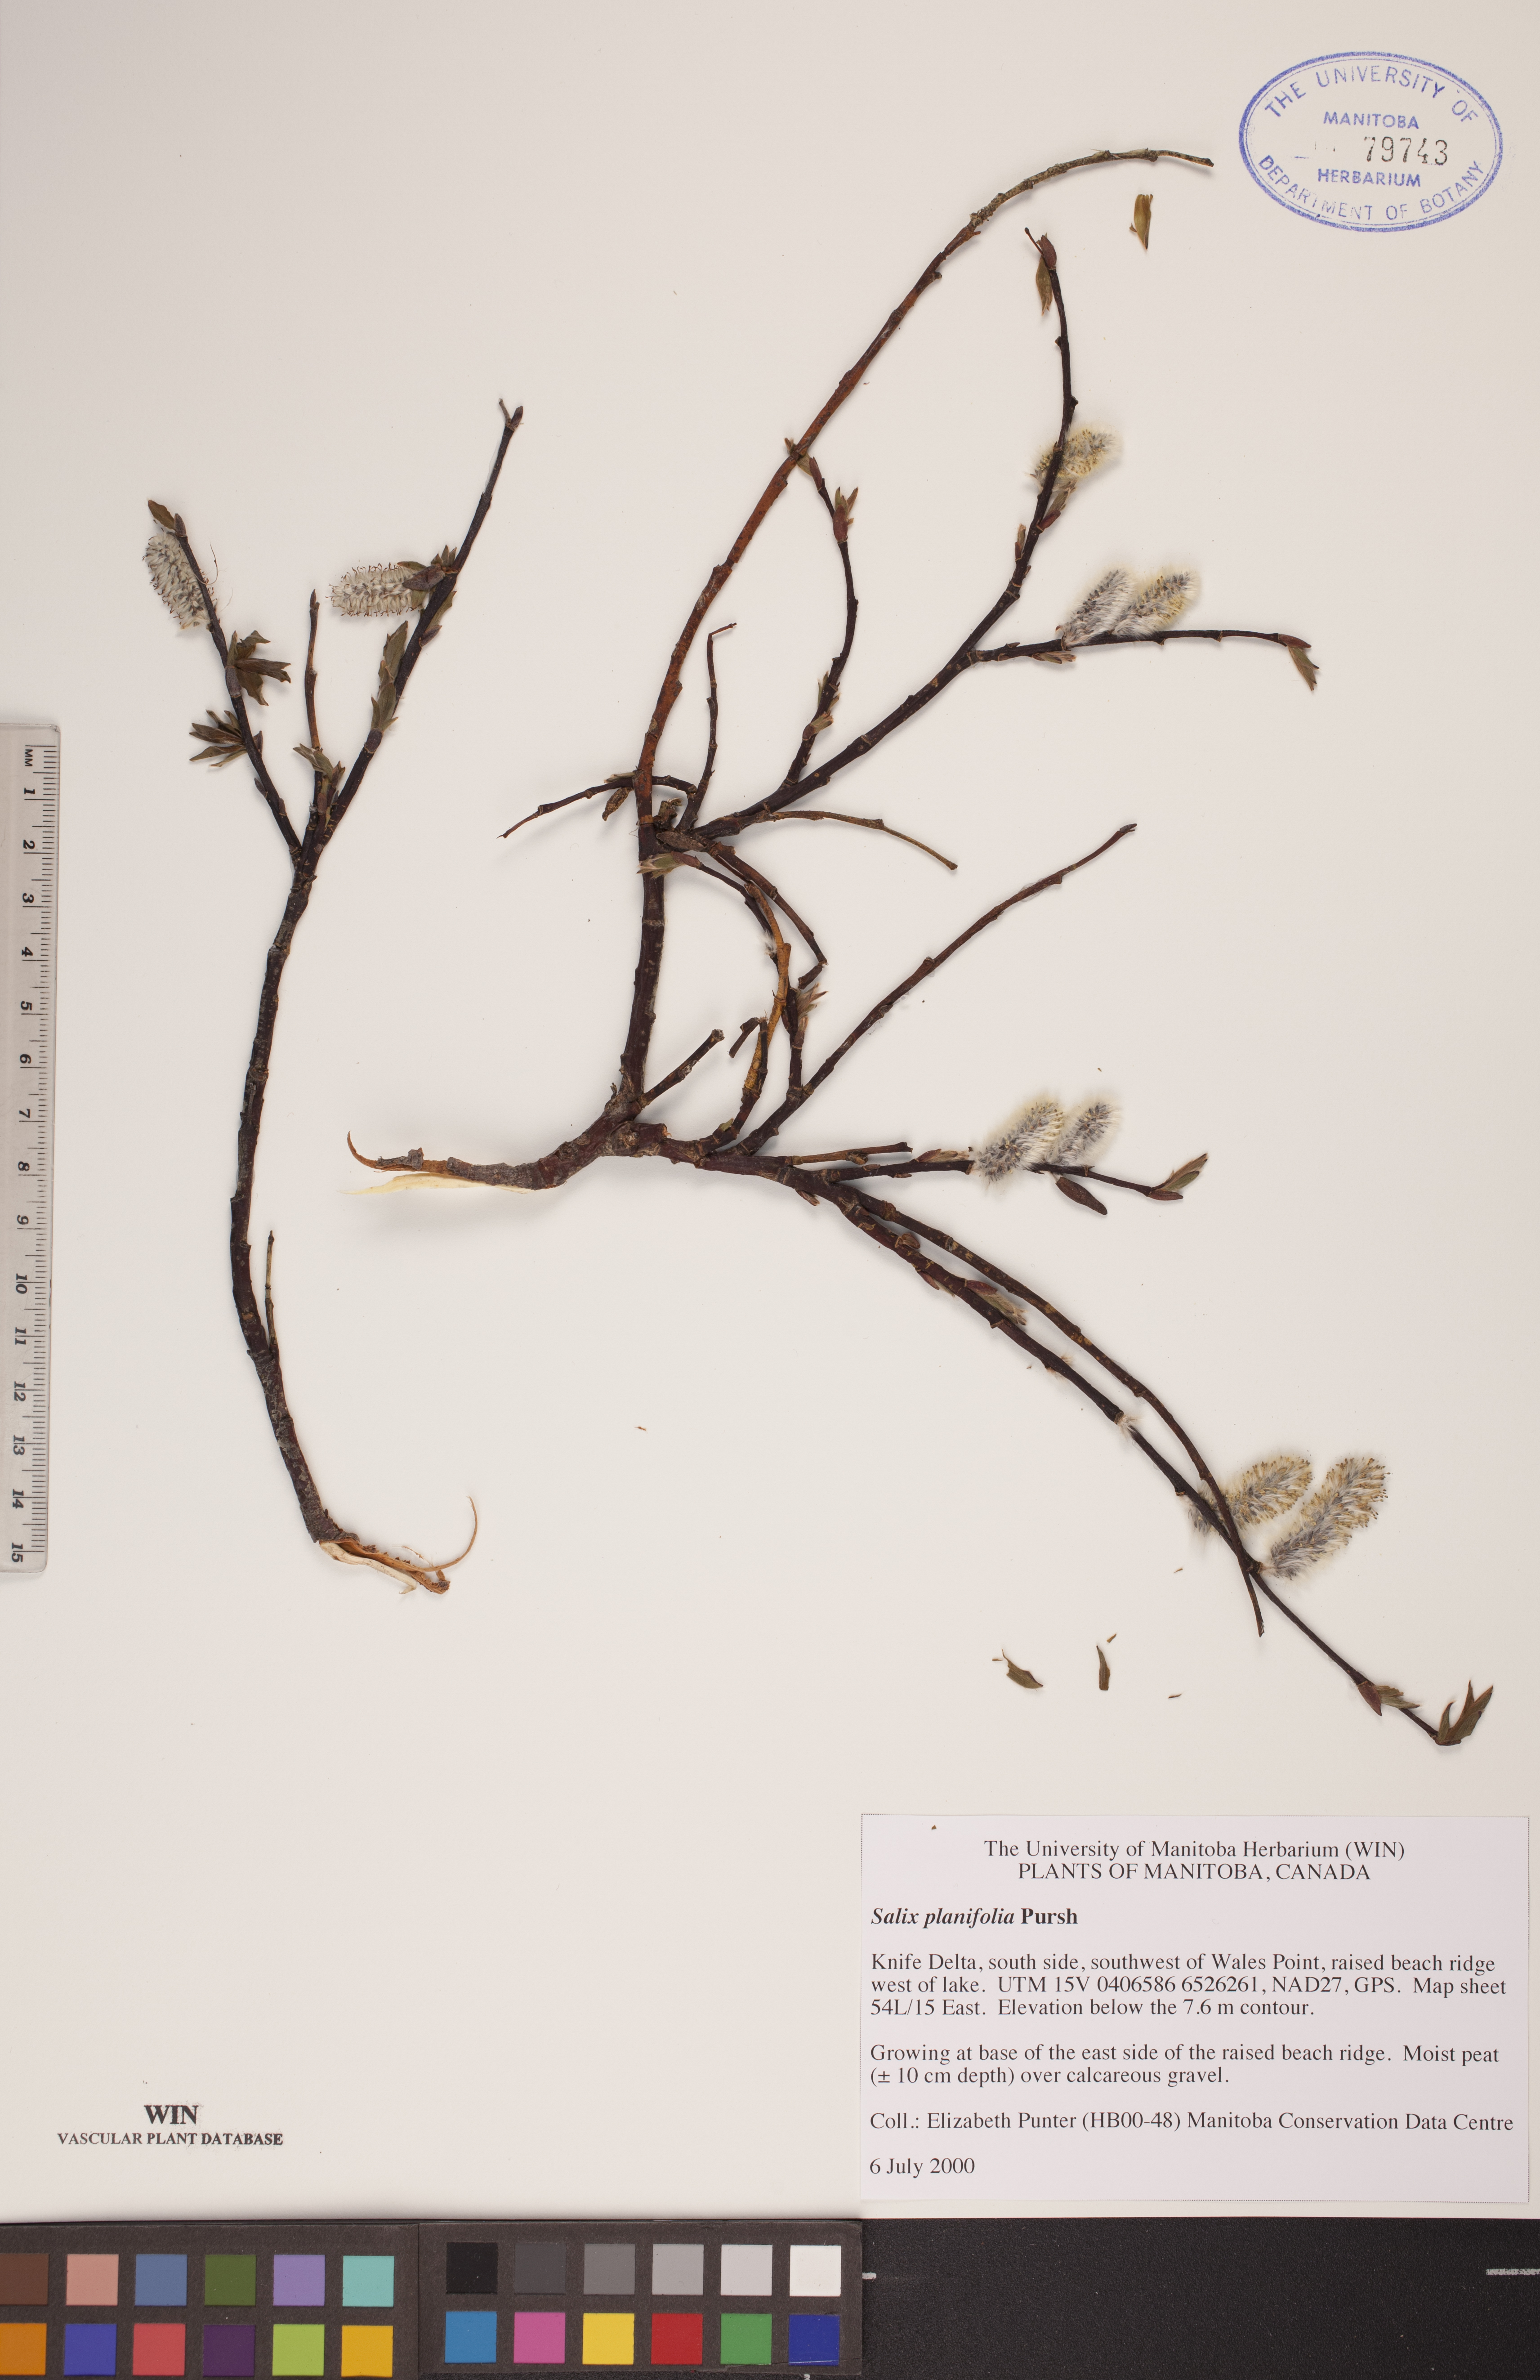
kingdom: Plantae
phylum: Tracheophyta
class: Magnoliopsida
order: Malpighiales
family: Salicaceae
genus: Salix
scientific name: Salix planifolia
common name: Mountain willow
